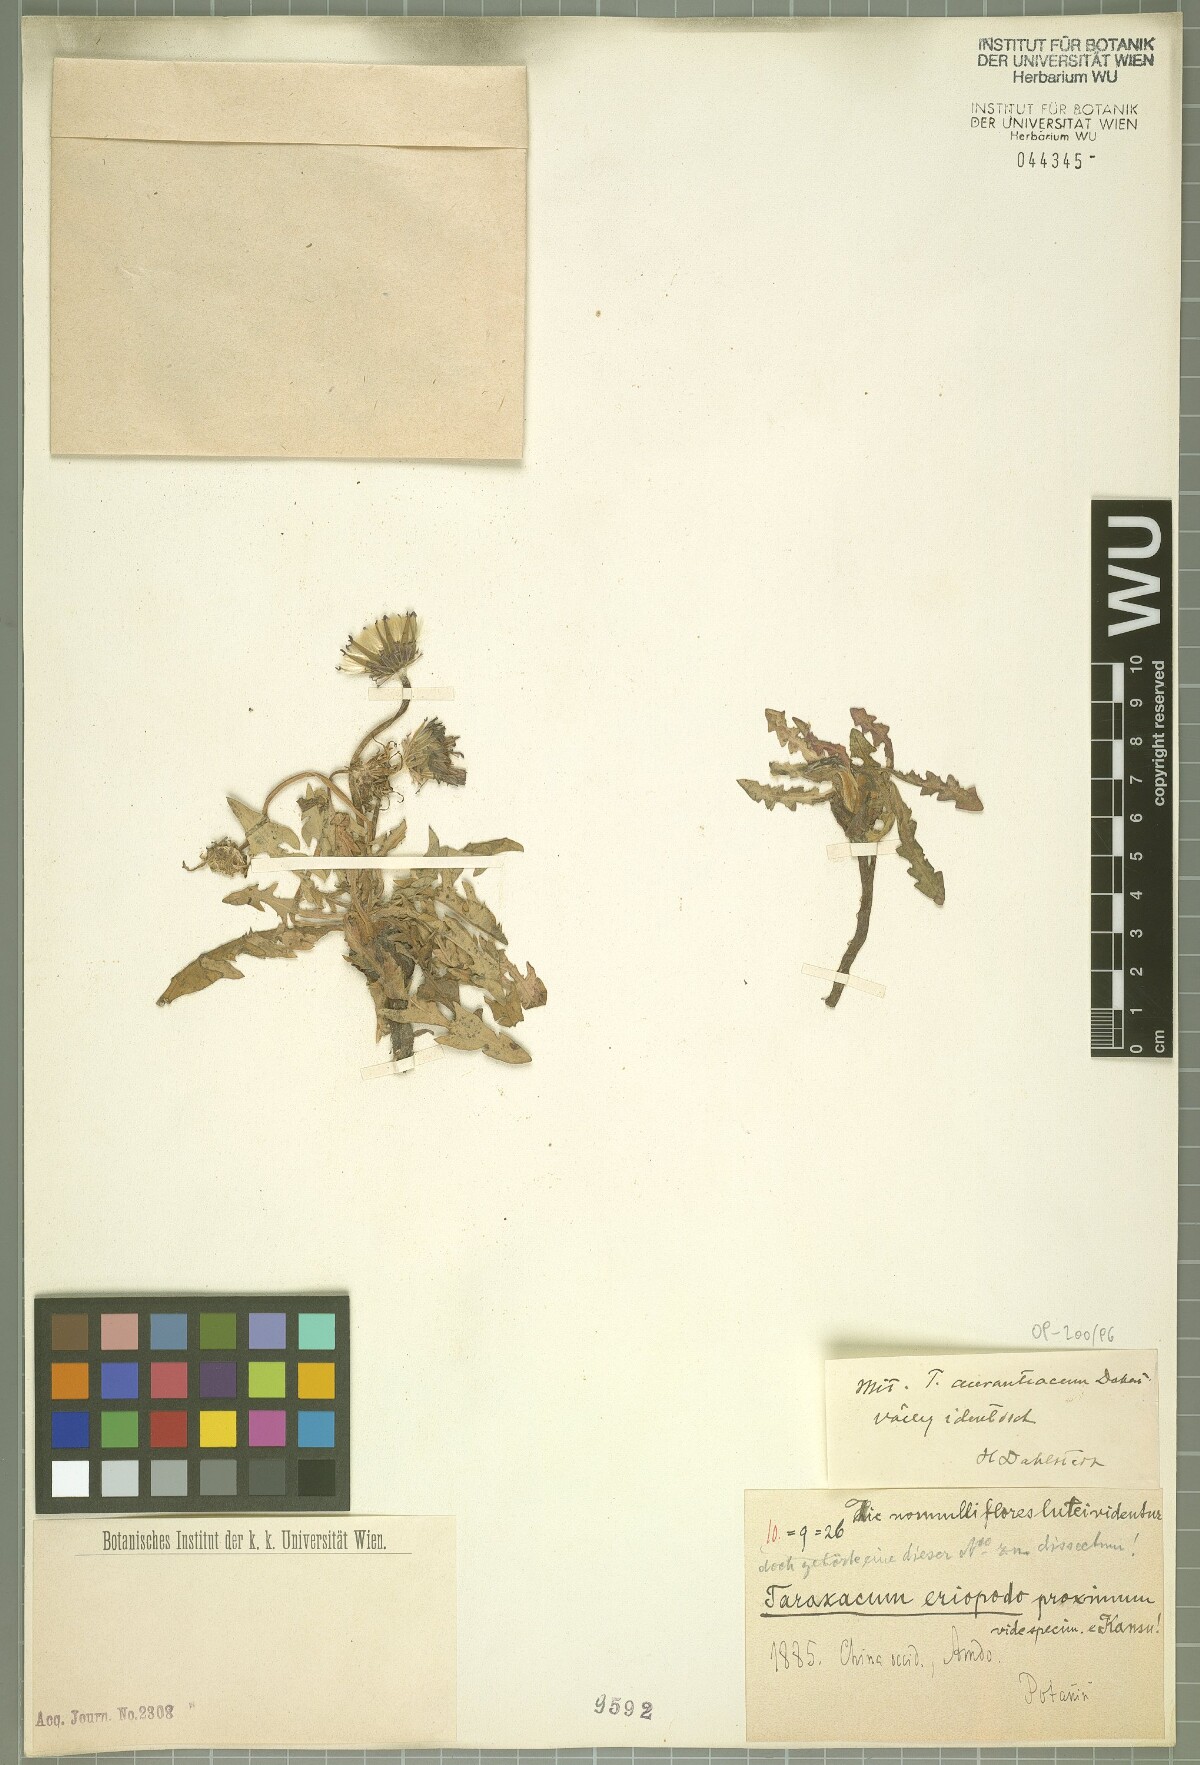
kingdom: Plantae
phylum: Tracheophyta
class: Magnoliopsida
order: Asterales
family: Asteraceae
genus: Taraxacum
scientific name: Taraxacum aurantiacum
